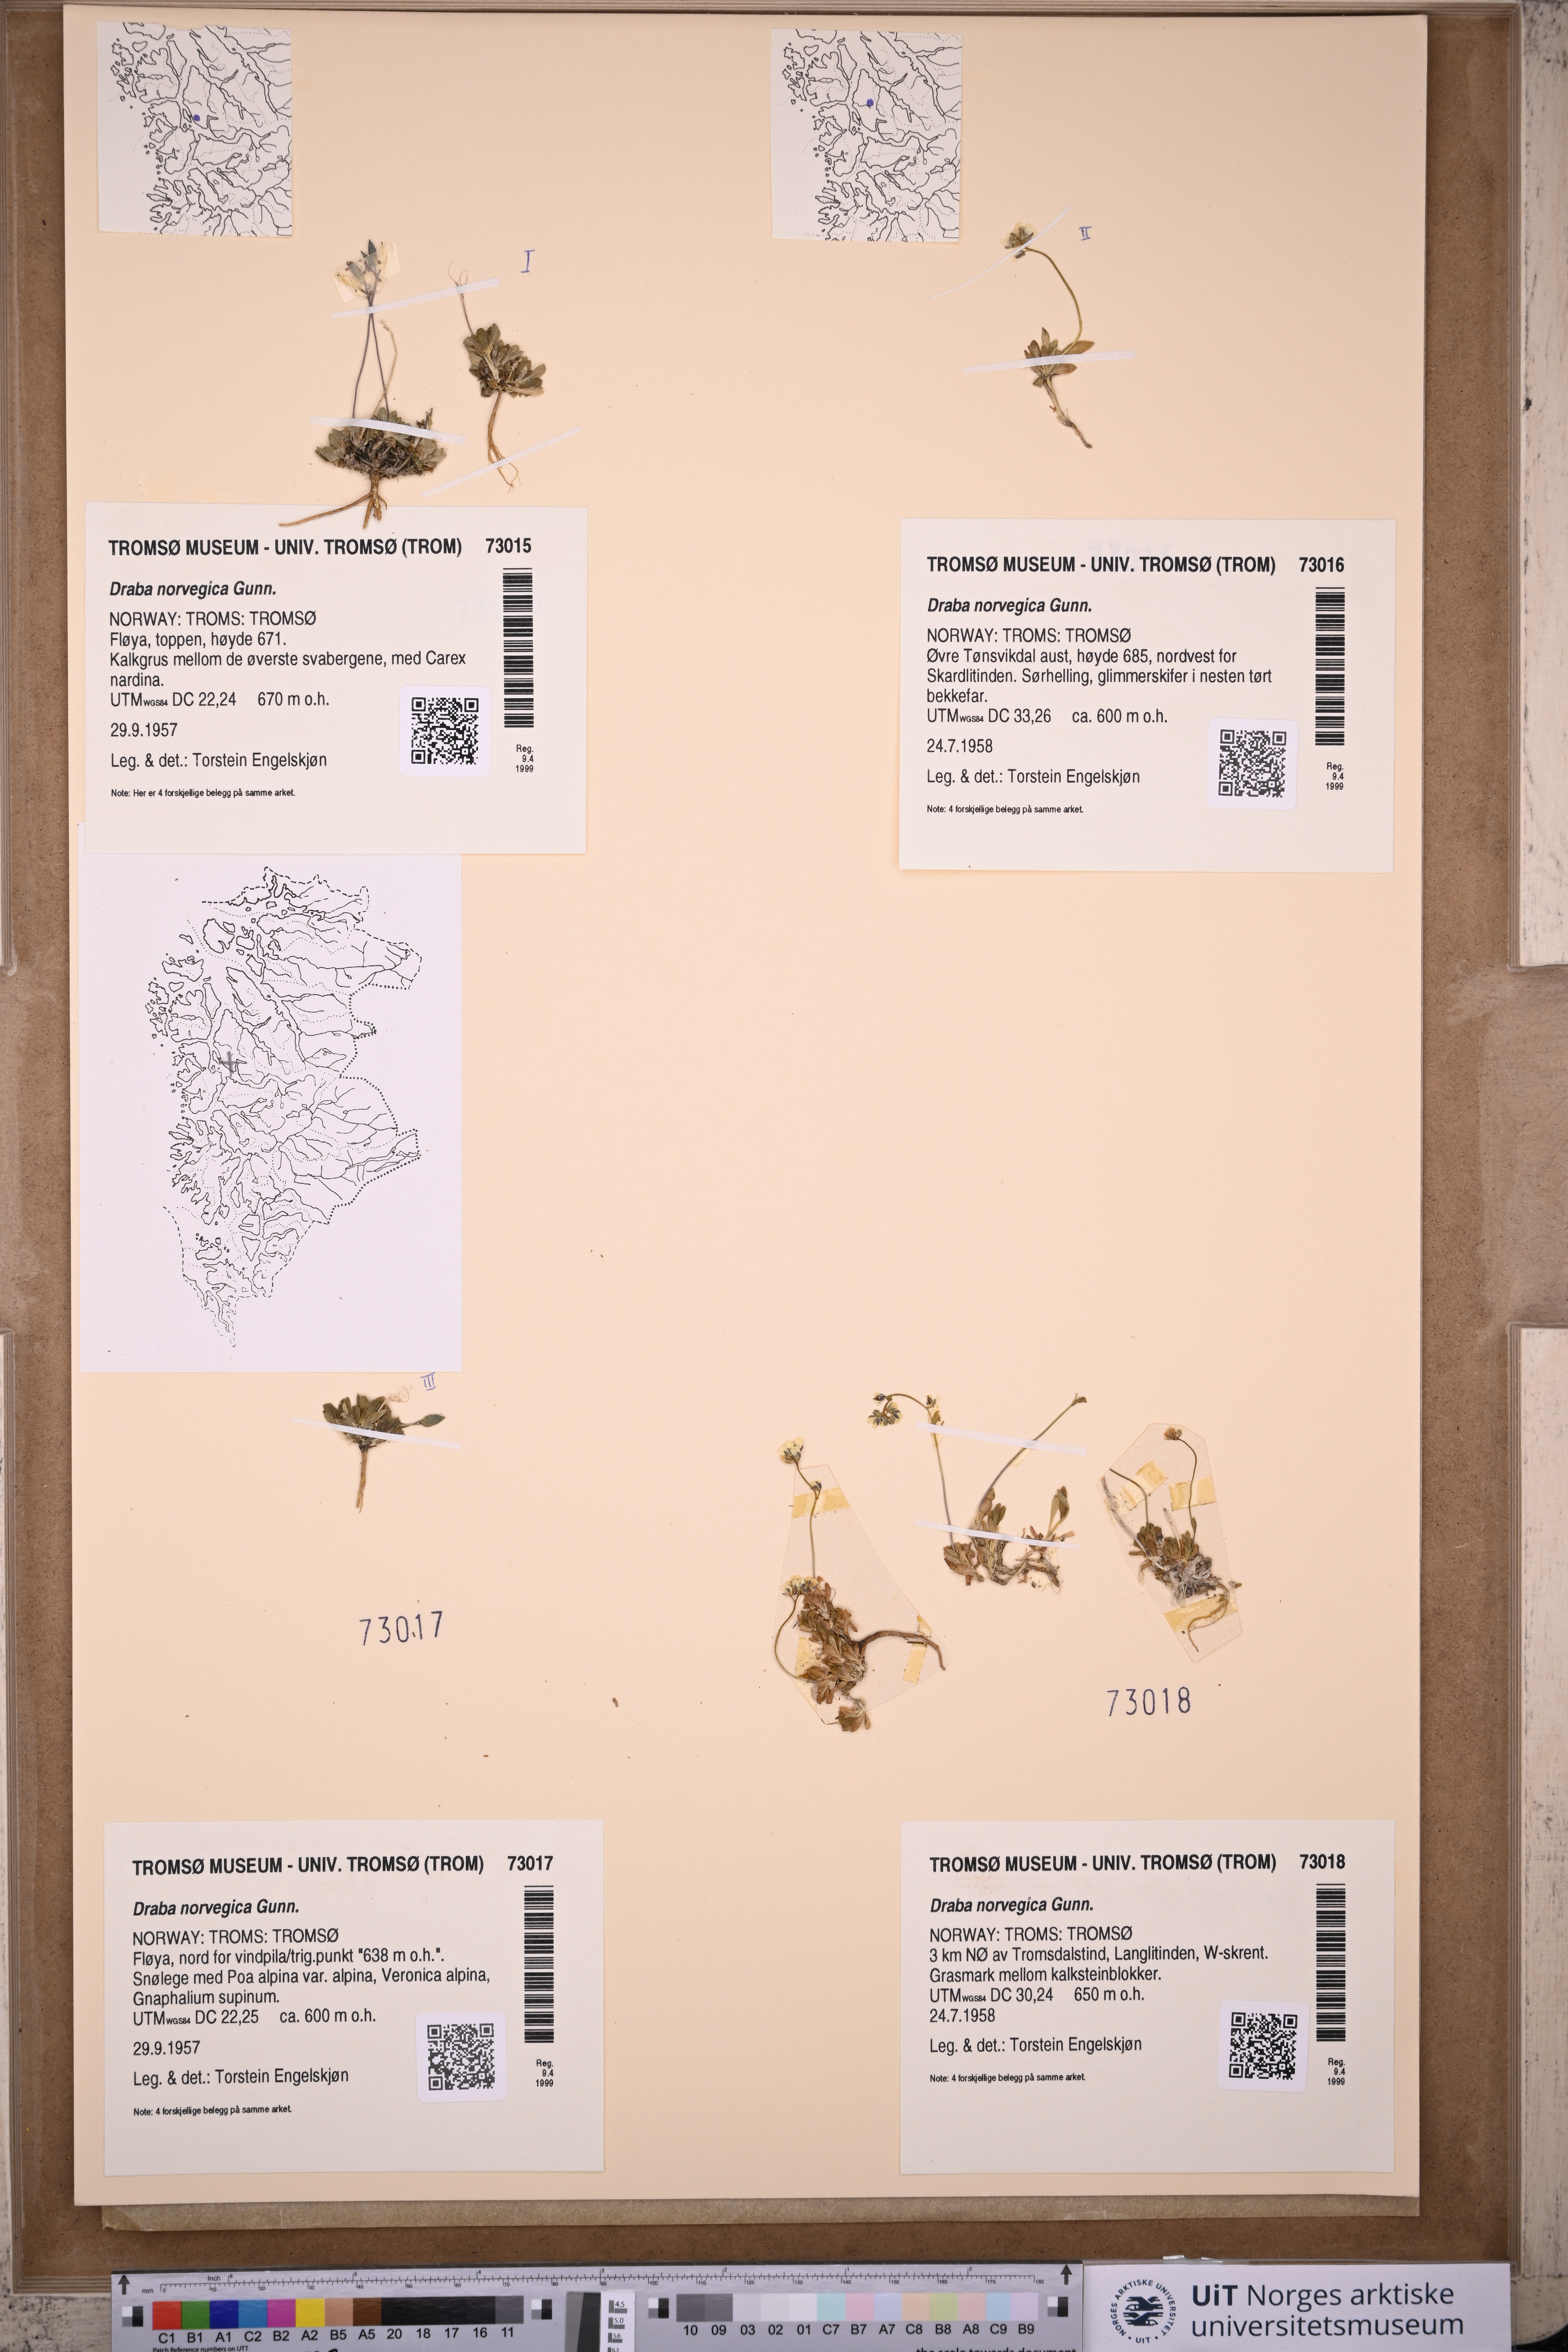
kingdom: Plantae
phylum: Tracheophyta
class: Magnoliopsida
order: Brassicales
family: Brassicaceae
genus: Draba
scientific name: Draba norvegica
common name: Rock whitlowgrass
